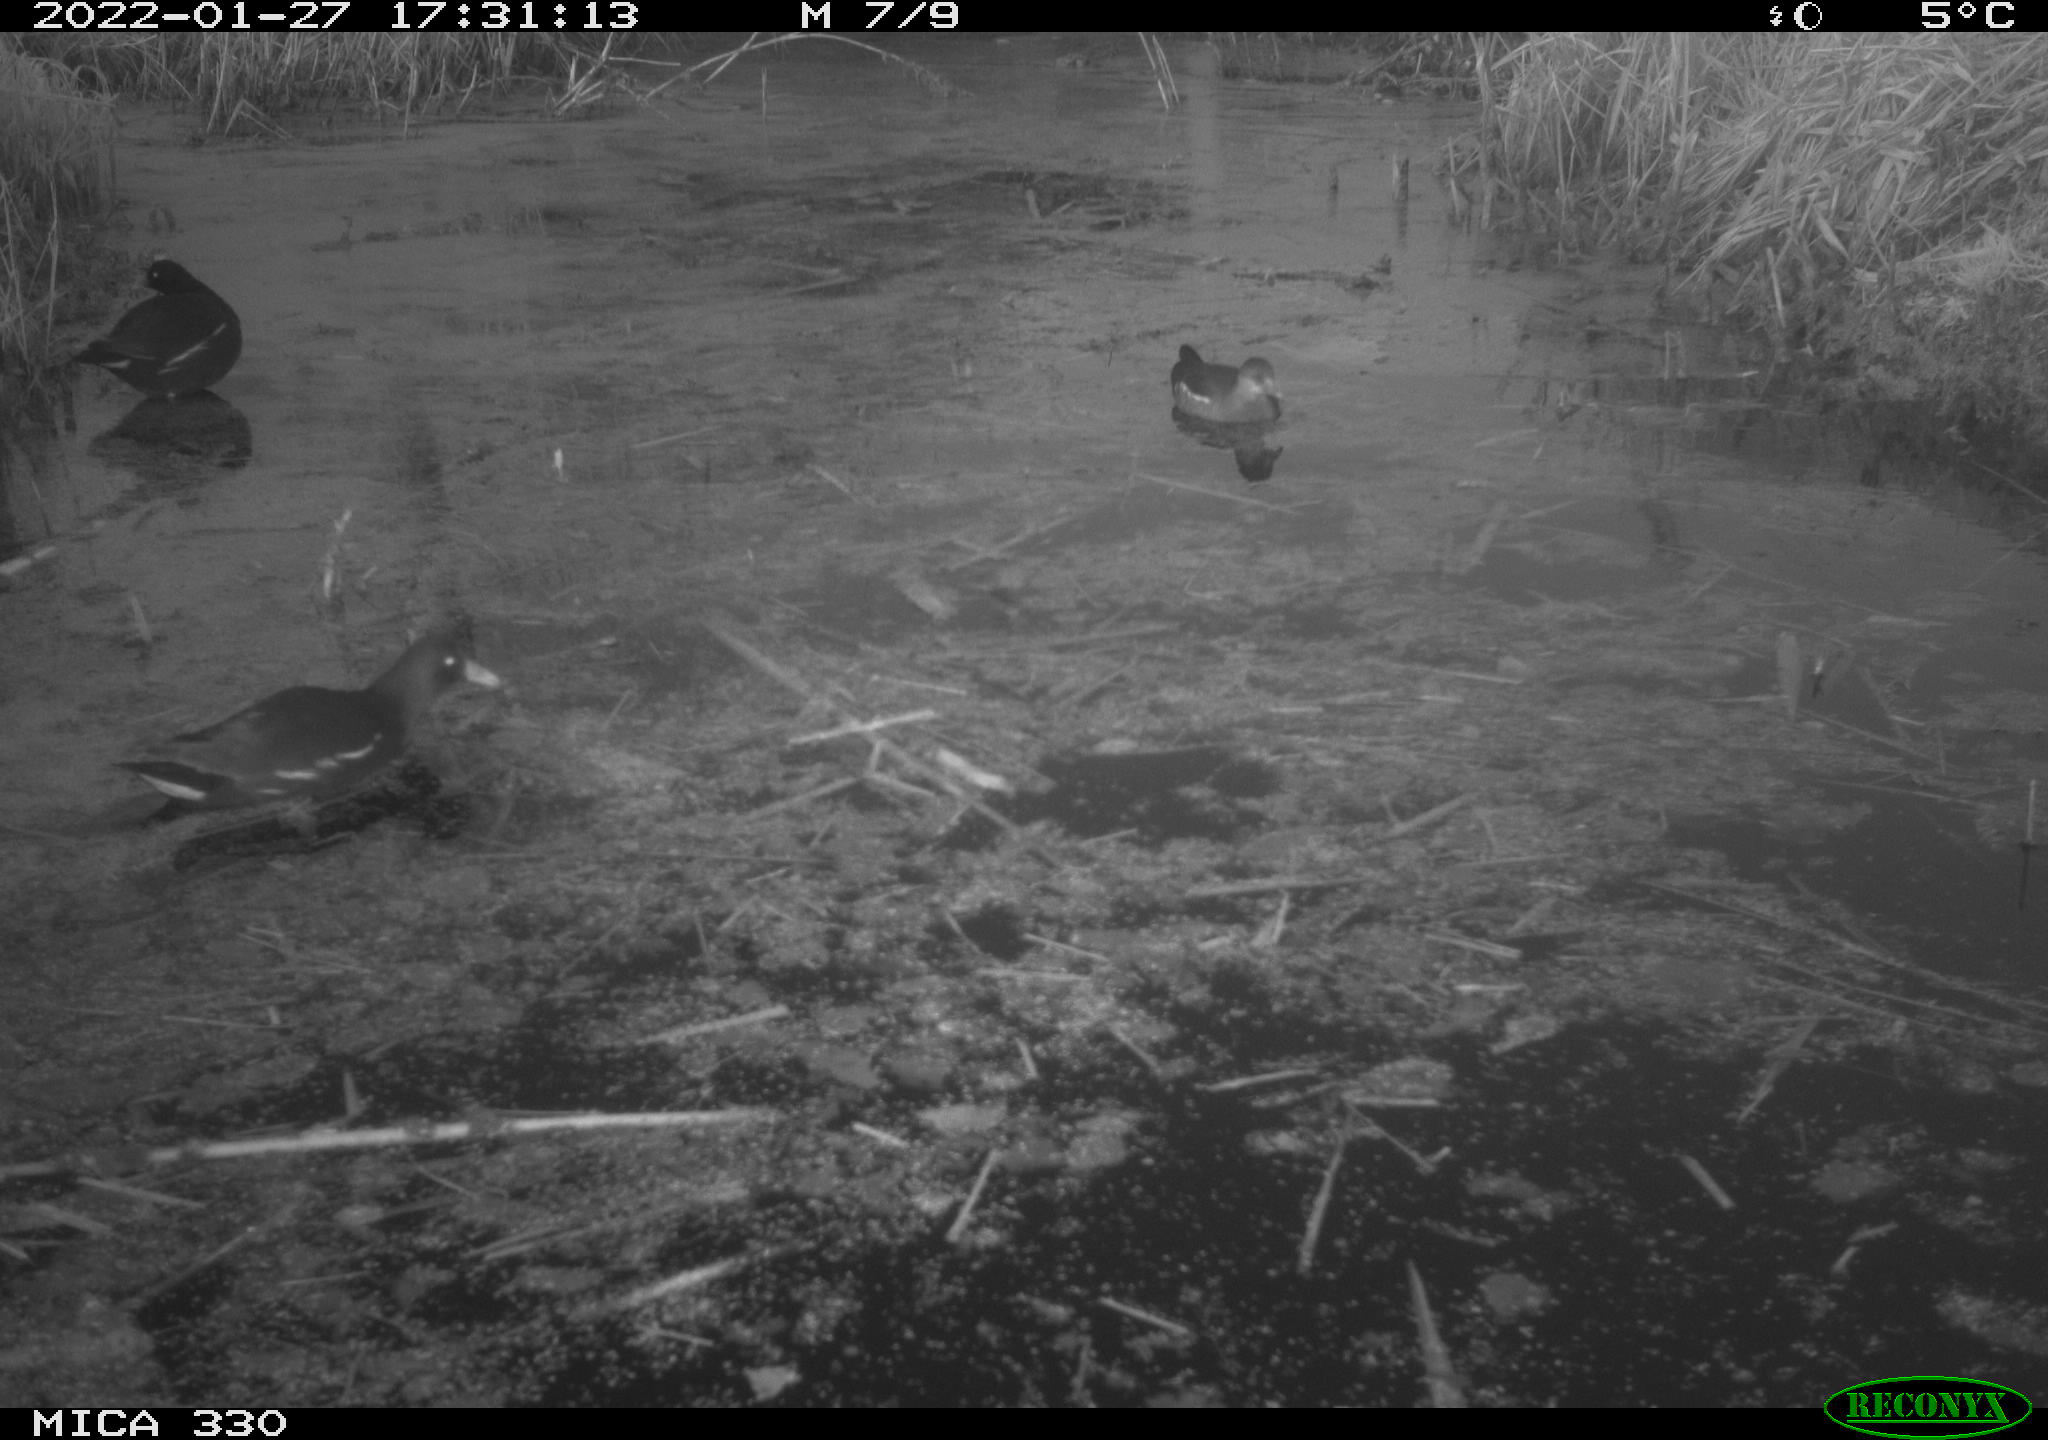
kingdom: Animalia
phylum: Chordata
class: Aves
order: Gruiformes
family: Rallidae
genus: Gallinula
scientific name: Gallinula chloropus
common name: Common moorhen
